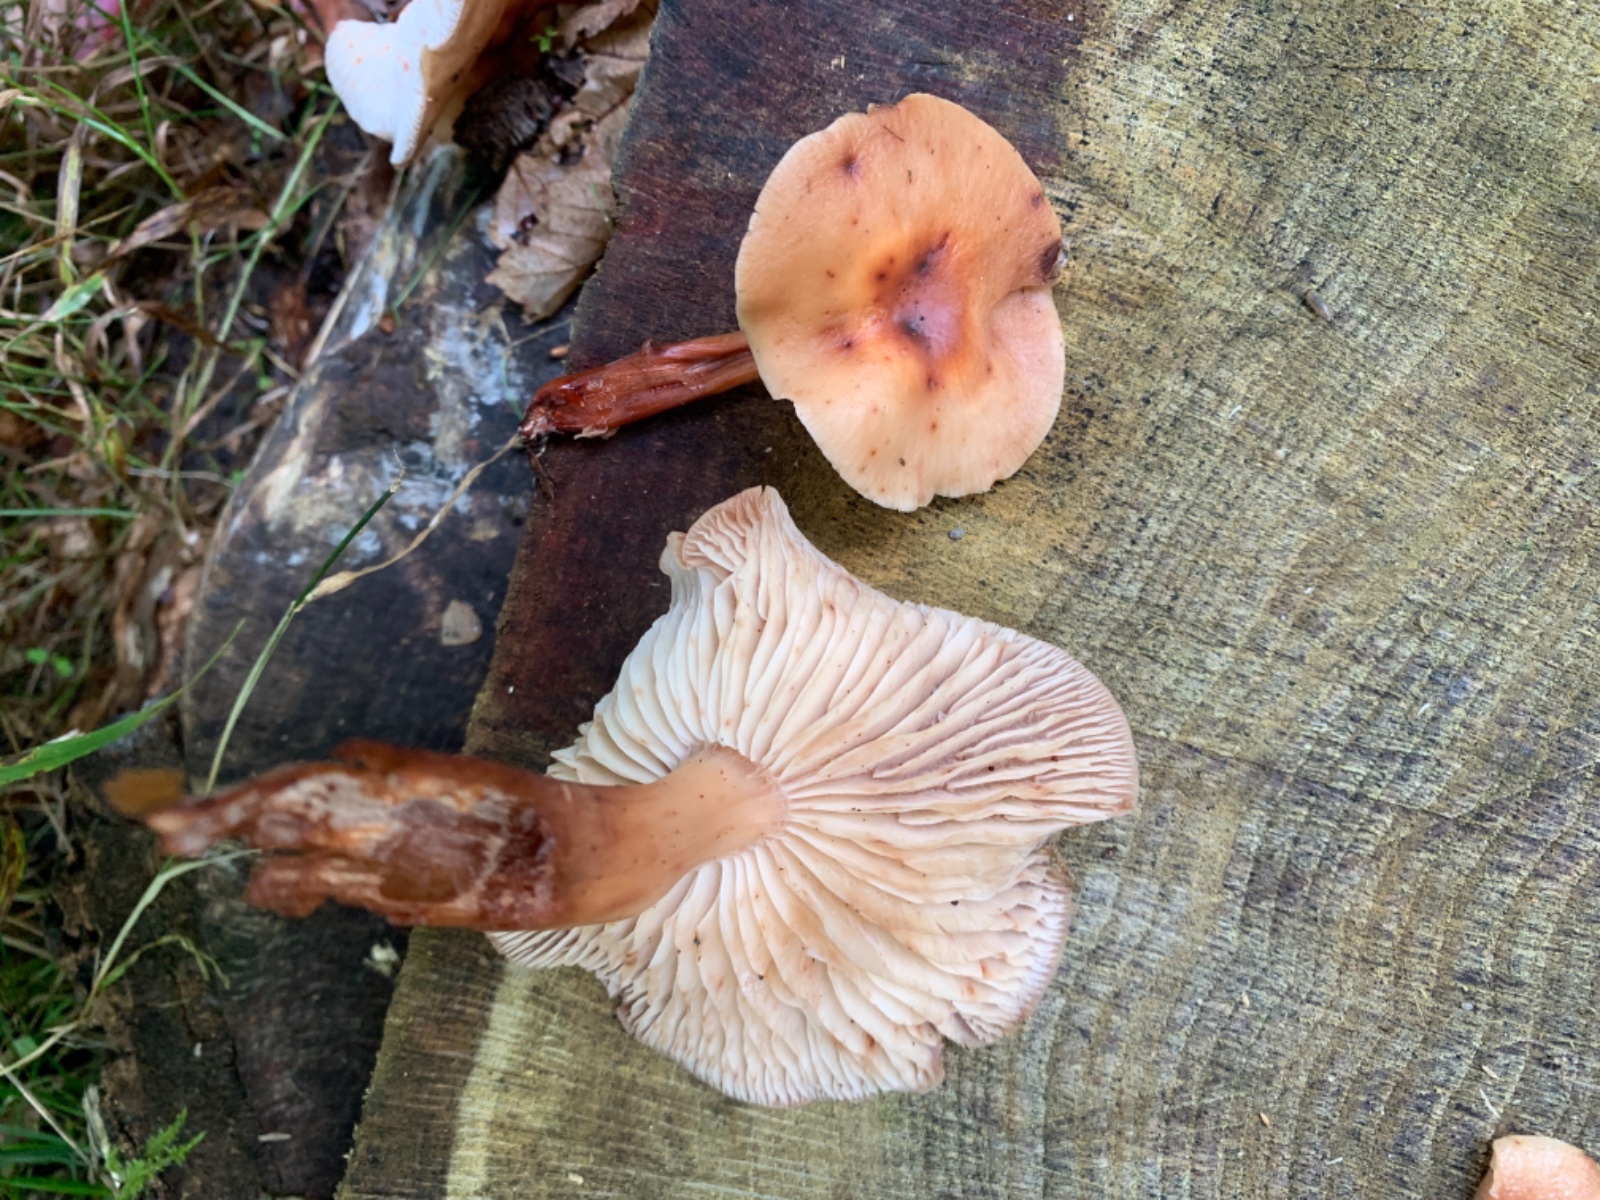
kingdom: Fungi
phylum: Basidiomycota
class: Agaricomycetes
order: Agaricales
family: Omphalotaceae
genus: Rhodocollybia
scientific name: Rhodocollybia maculata
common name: plettet fladhat
